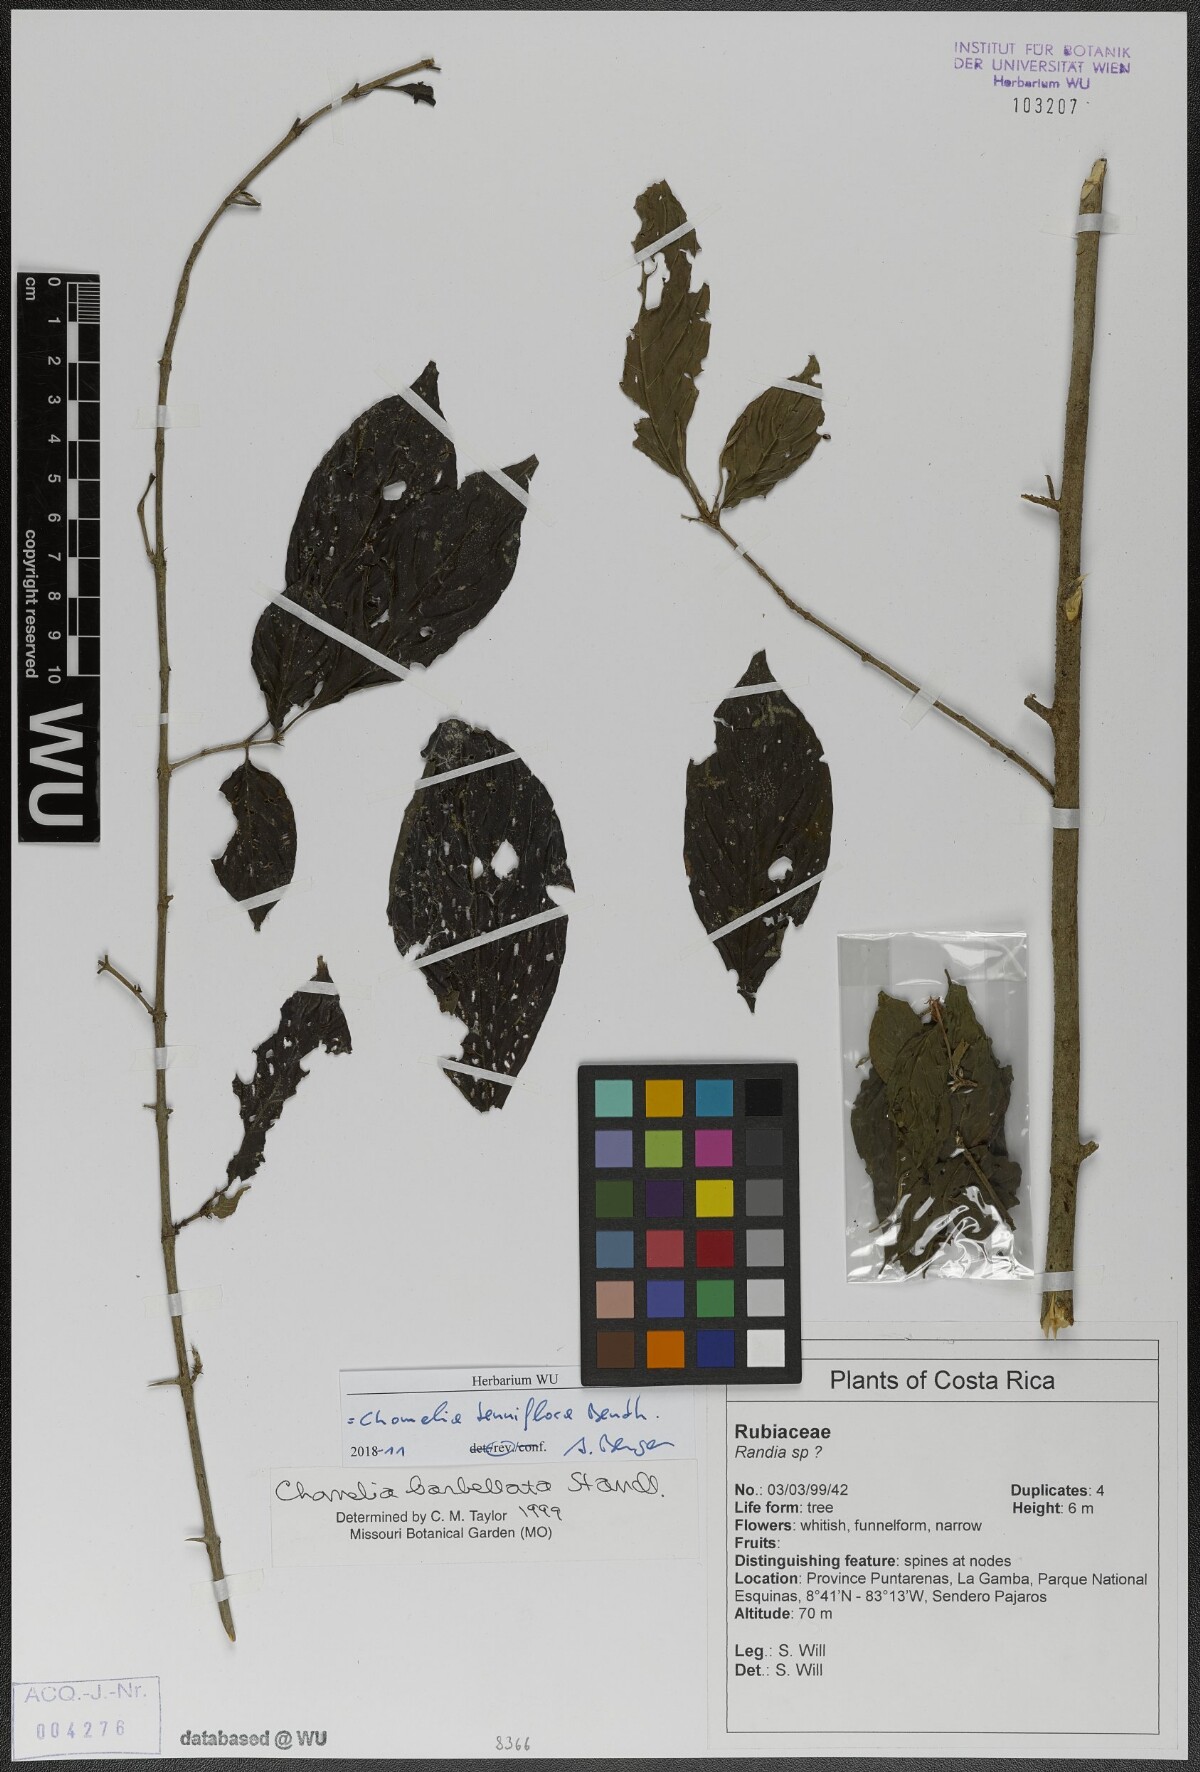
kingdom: Plantae
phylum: Tracheophyta
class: Magnoliopsida
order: Gentianales
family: Rubiaceae
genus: Chomelia
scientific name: Chomelia tenuiflora
